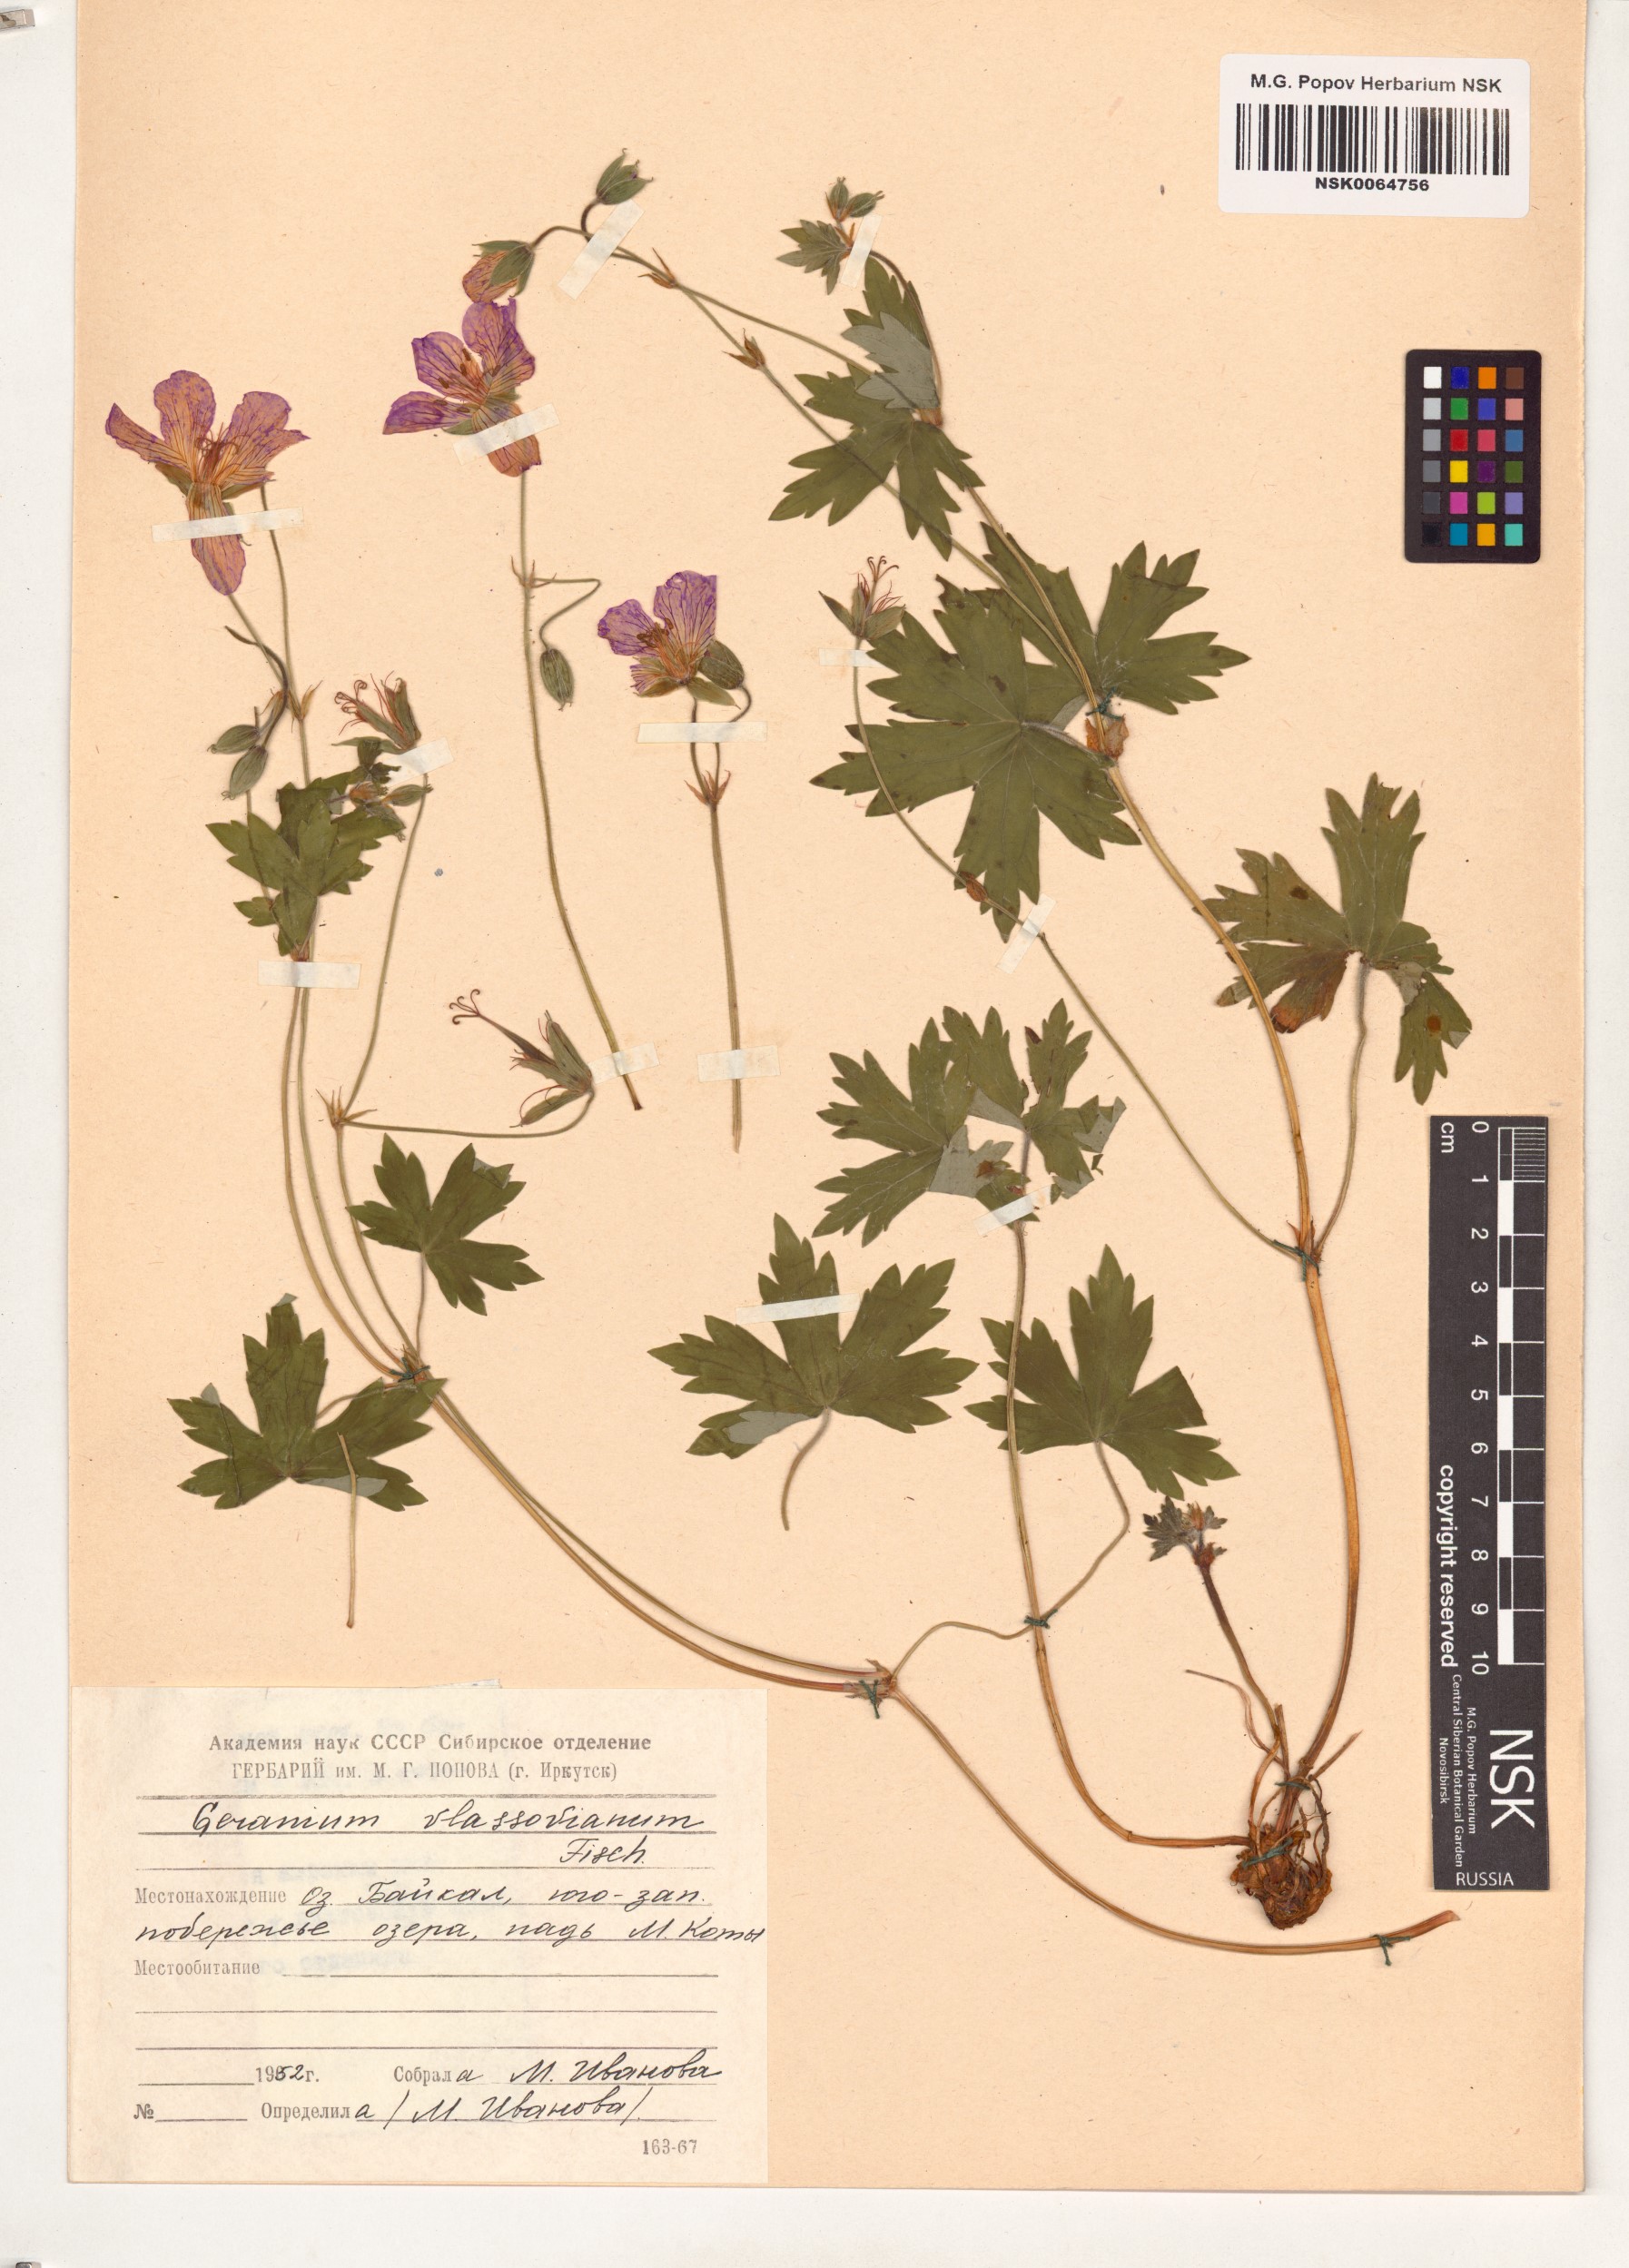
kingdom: Plantae
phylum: Tracheophyta
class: Magnoliopsida
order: Geraniales
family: Geraniaceae
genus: Geranium
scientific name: Geranium wlassovianum
